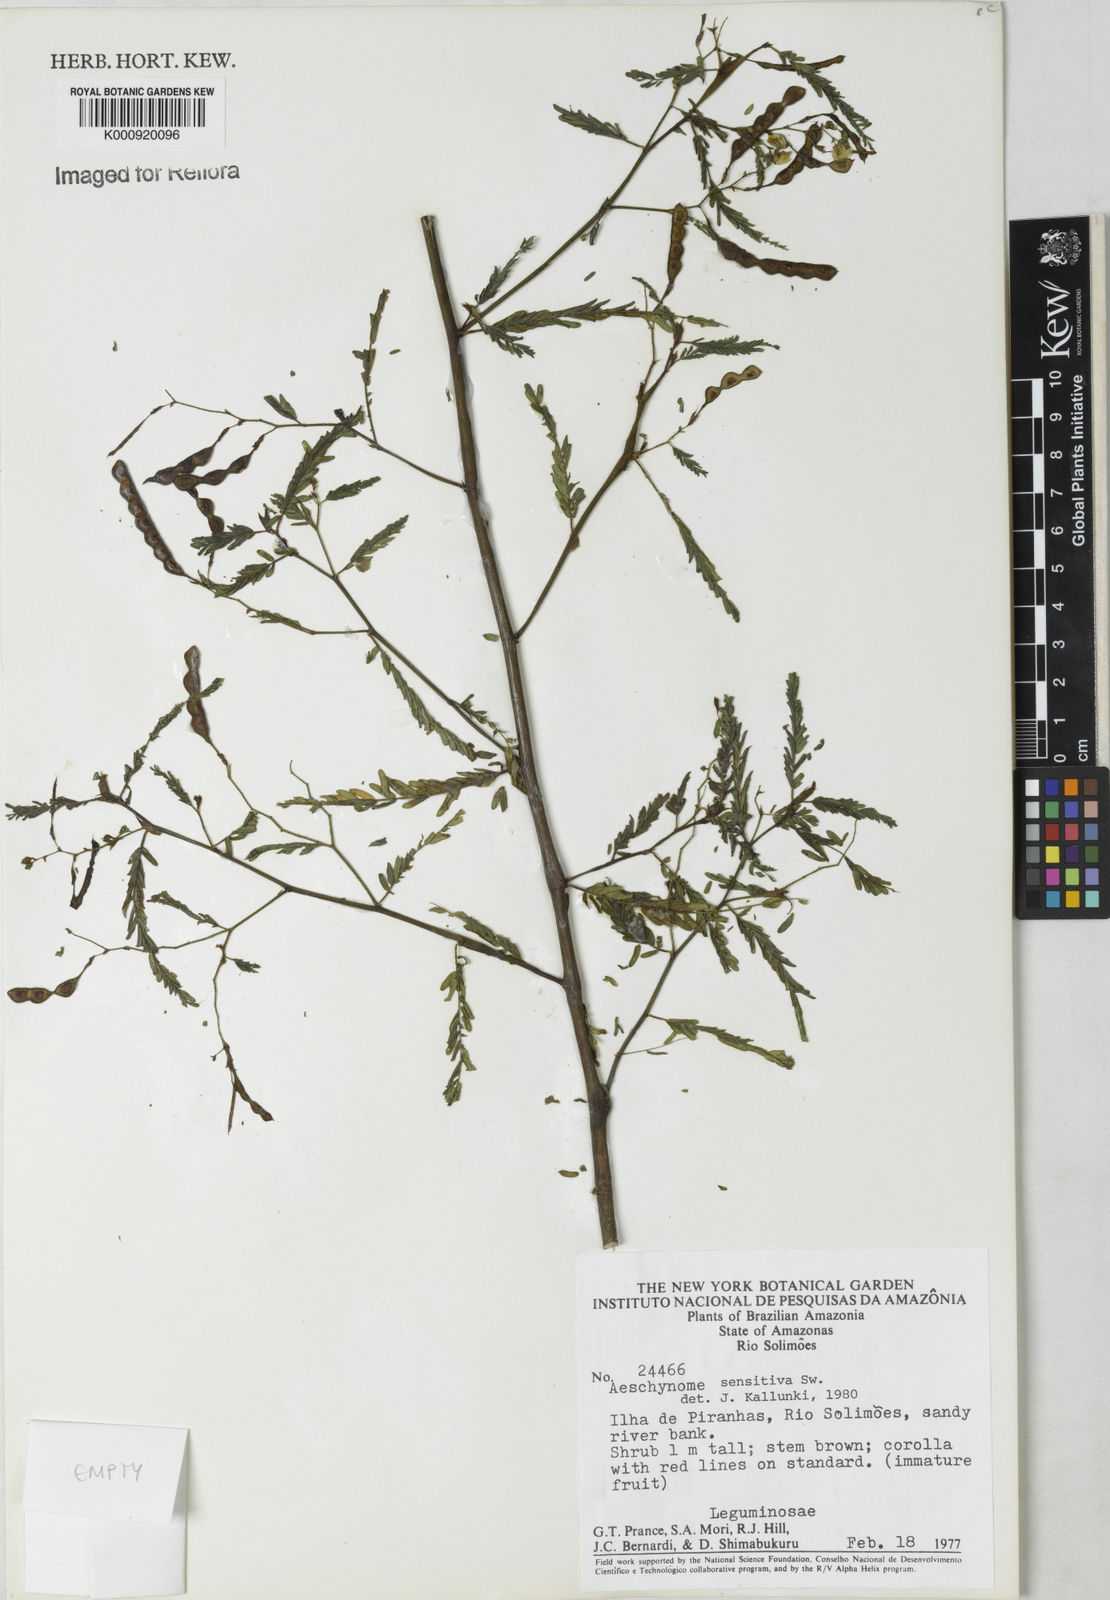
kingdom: Plantae
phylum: Tracheophyta
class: Magnoliopsida
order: Fabales
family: Fabaceae
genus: Aeschynomene
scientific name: Aeschynomene sensitiva
